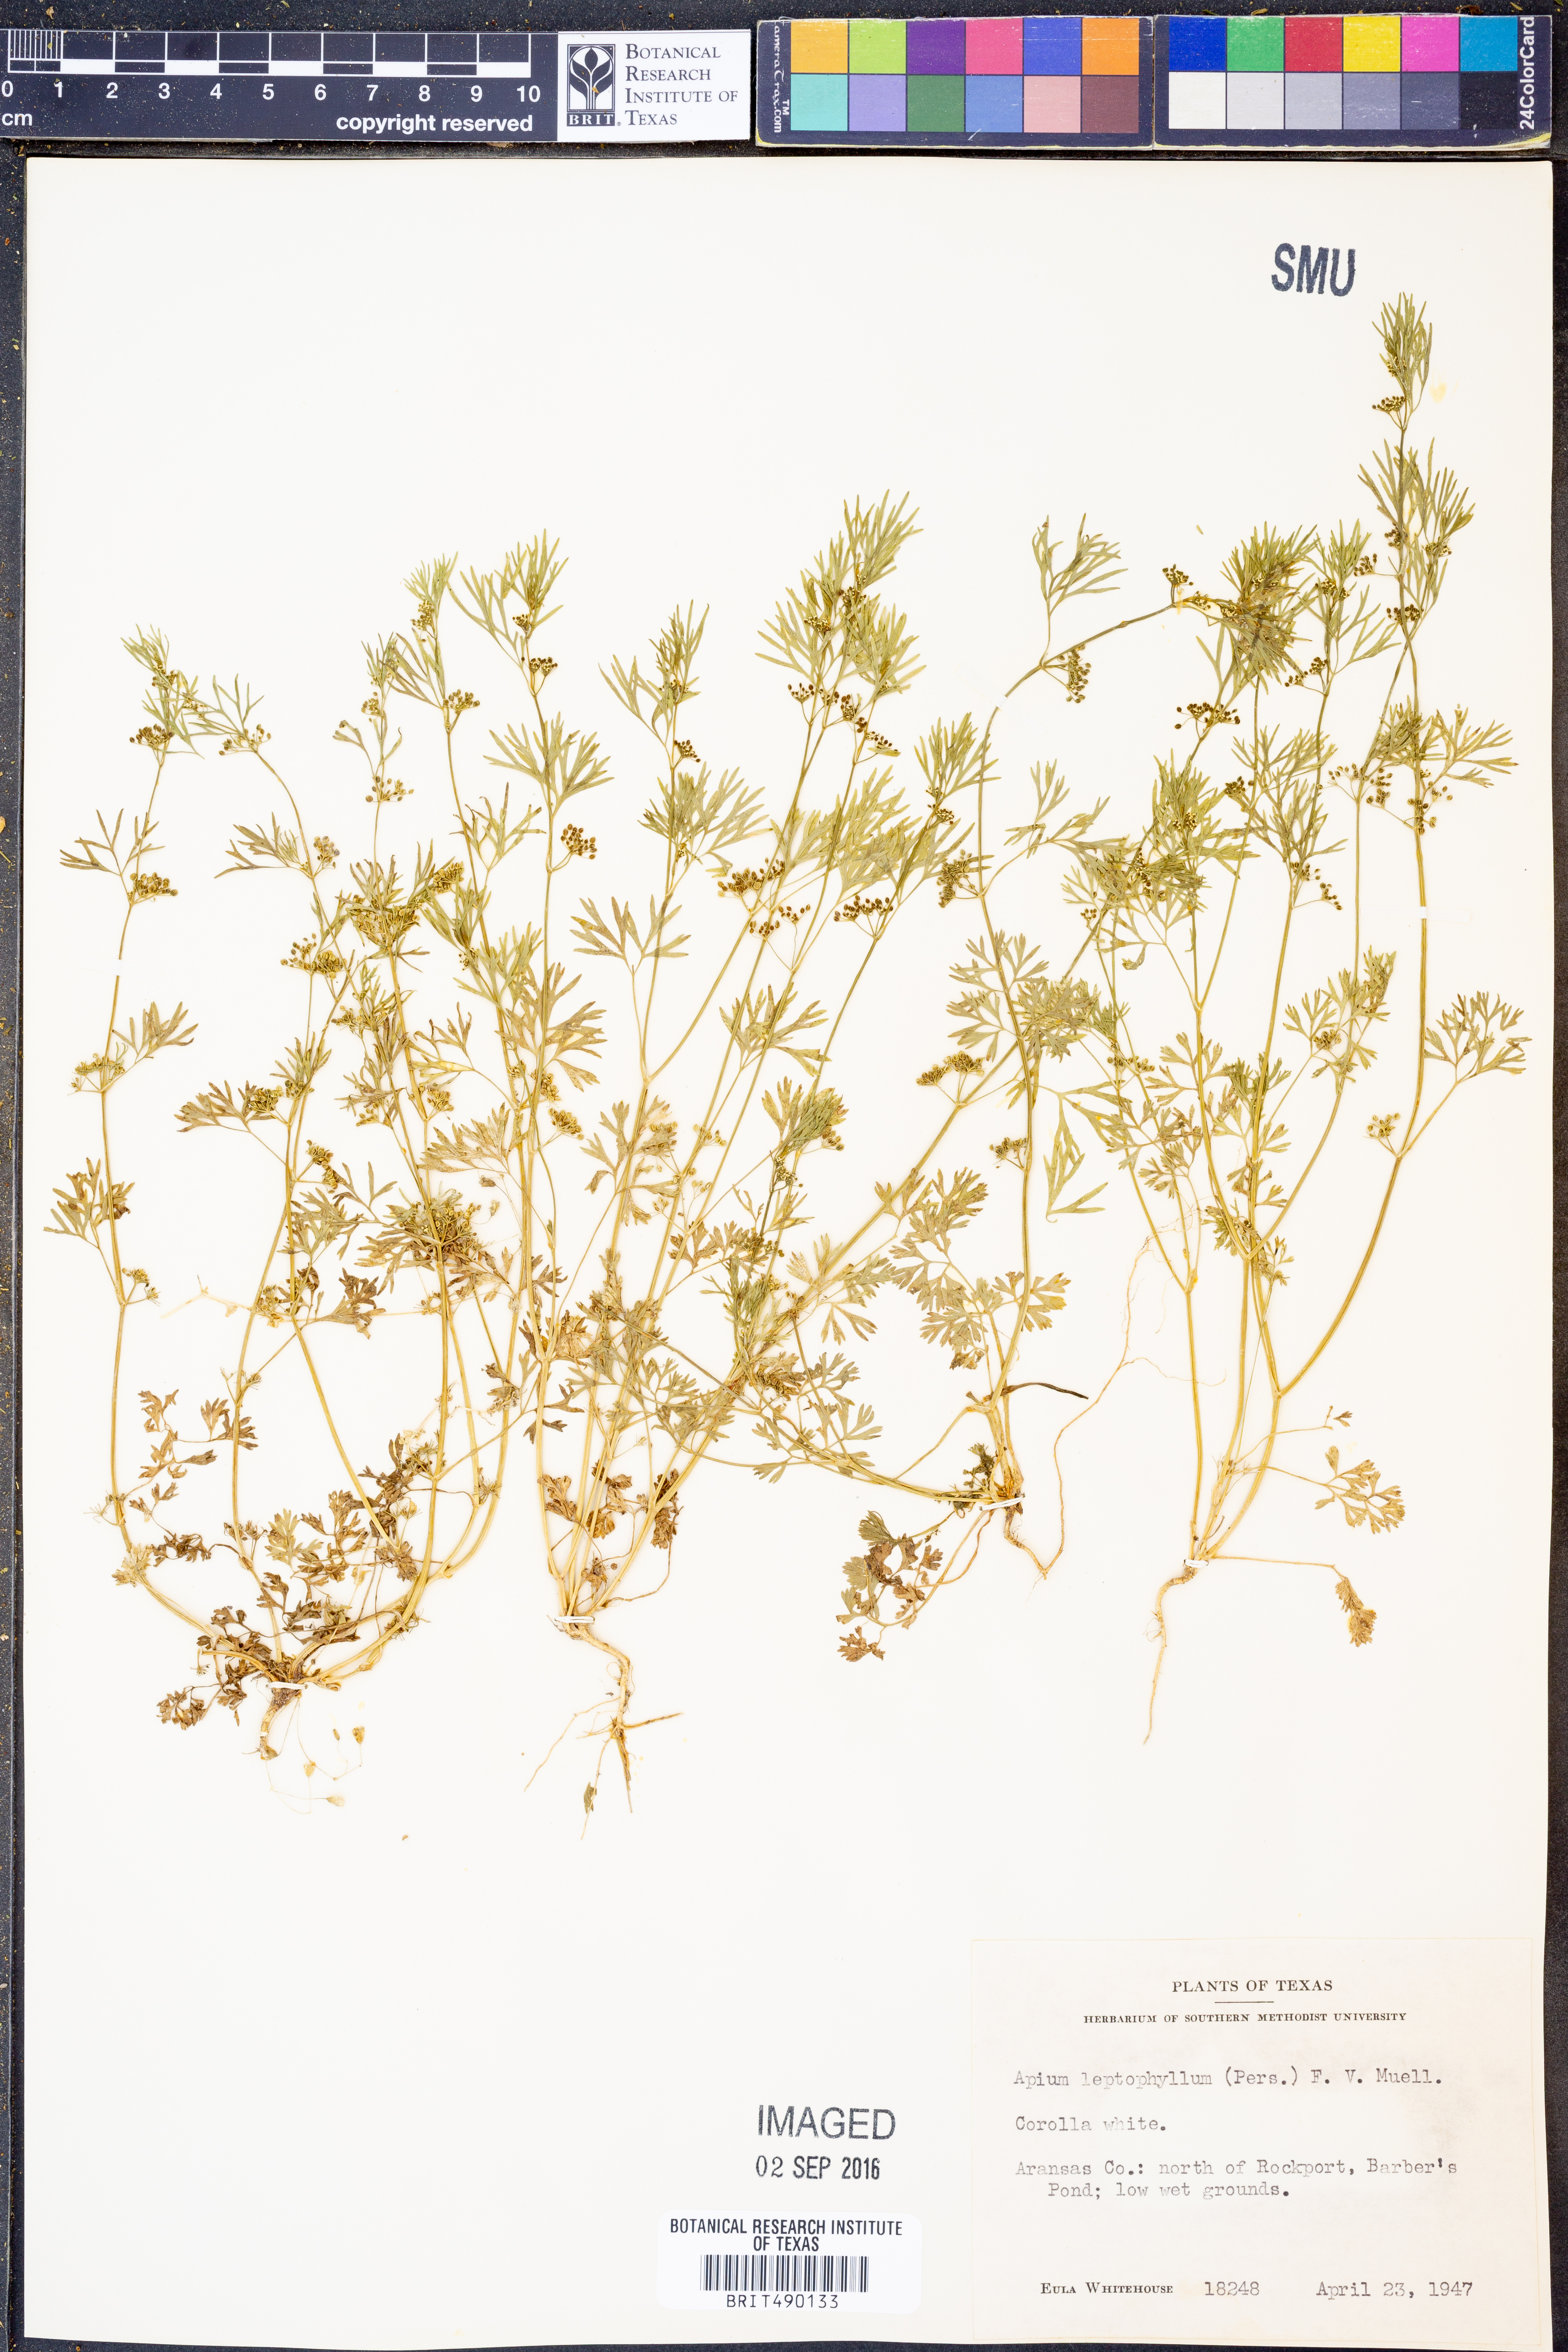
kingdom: Plantae
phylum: Tracheophyta
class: Magnoliopsida
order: Apiales
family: Apiaceae
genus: Cyclospermum
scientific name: Cyclospermum leptophyllum
